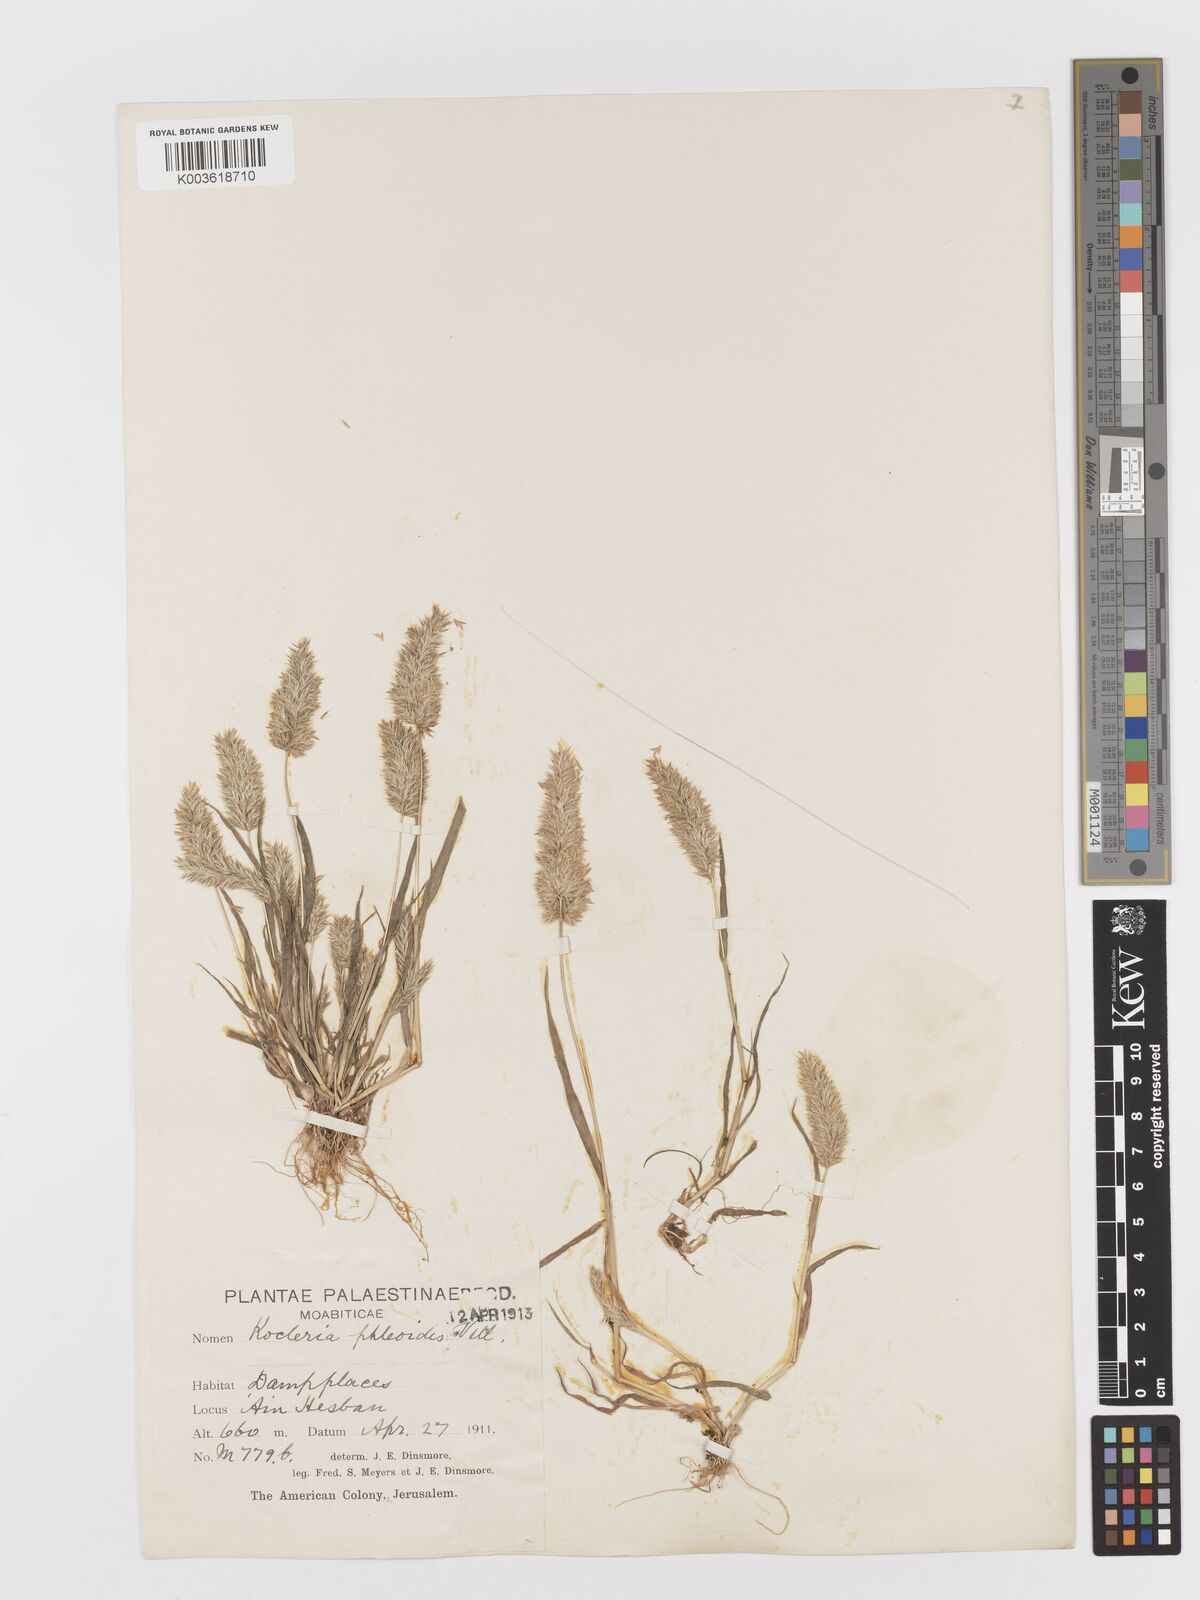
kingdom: Plantae
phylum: Tracheophyta
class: Liliopsida
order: Poales
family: Poaceae
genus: Rostraria
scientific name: Rostraria smyrnaea
